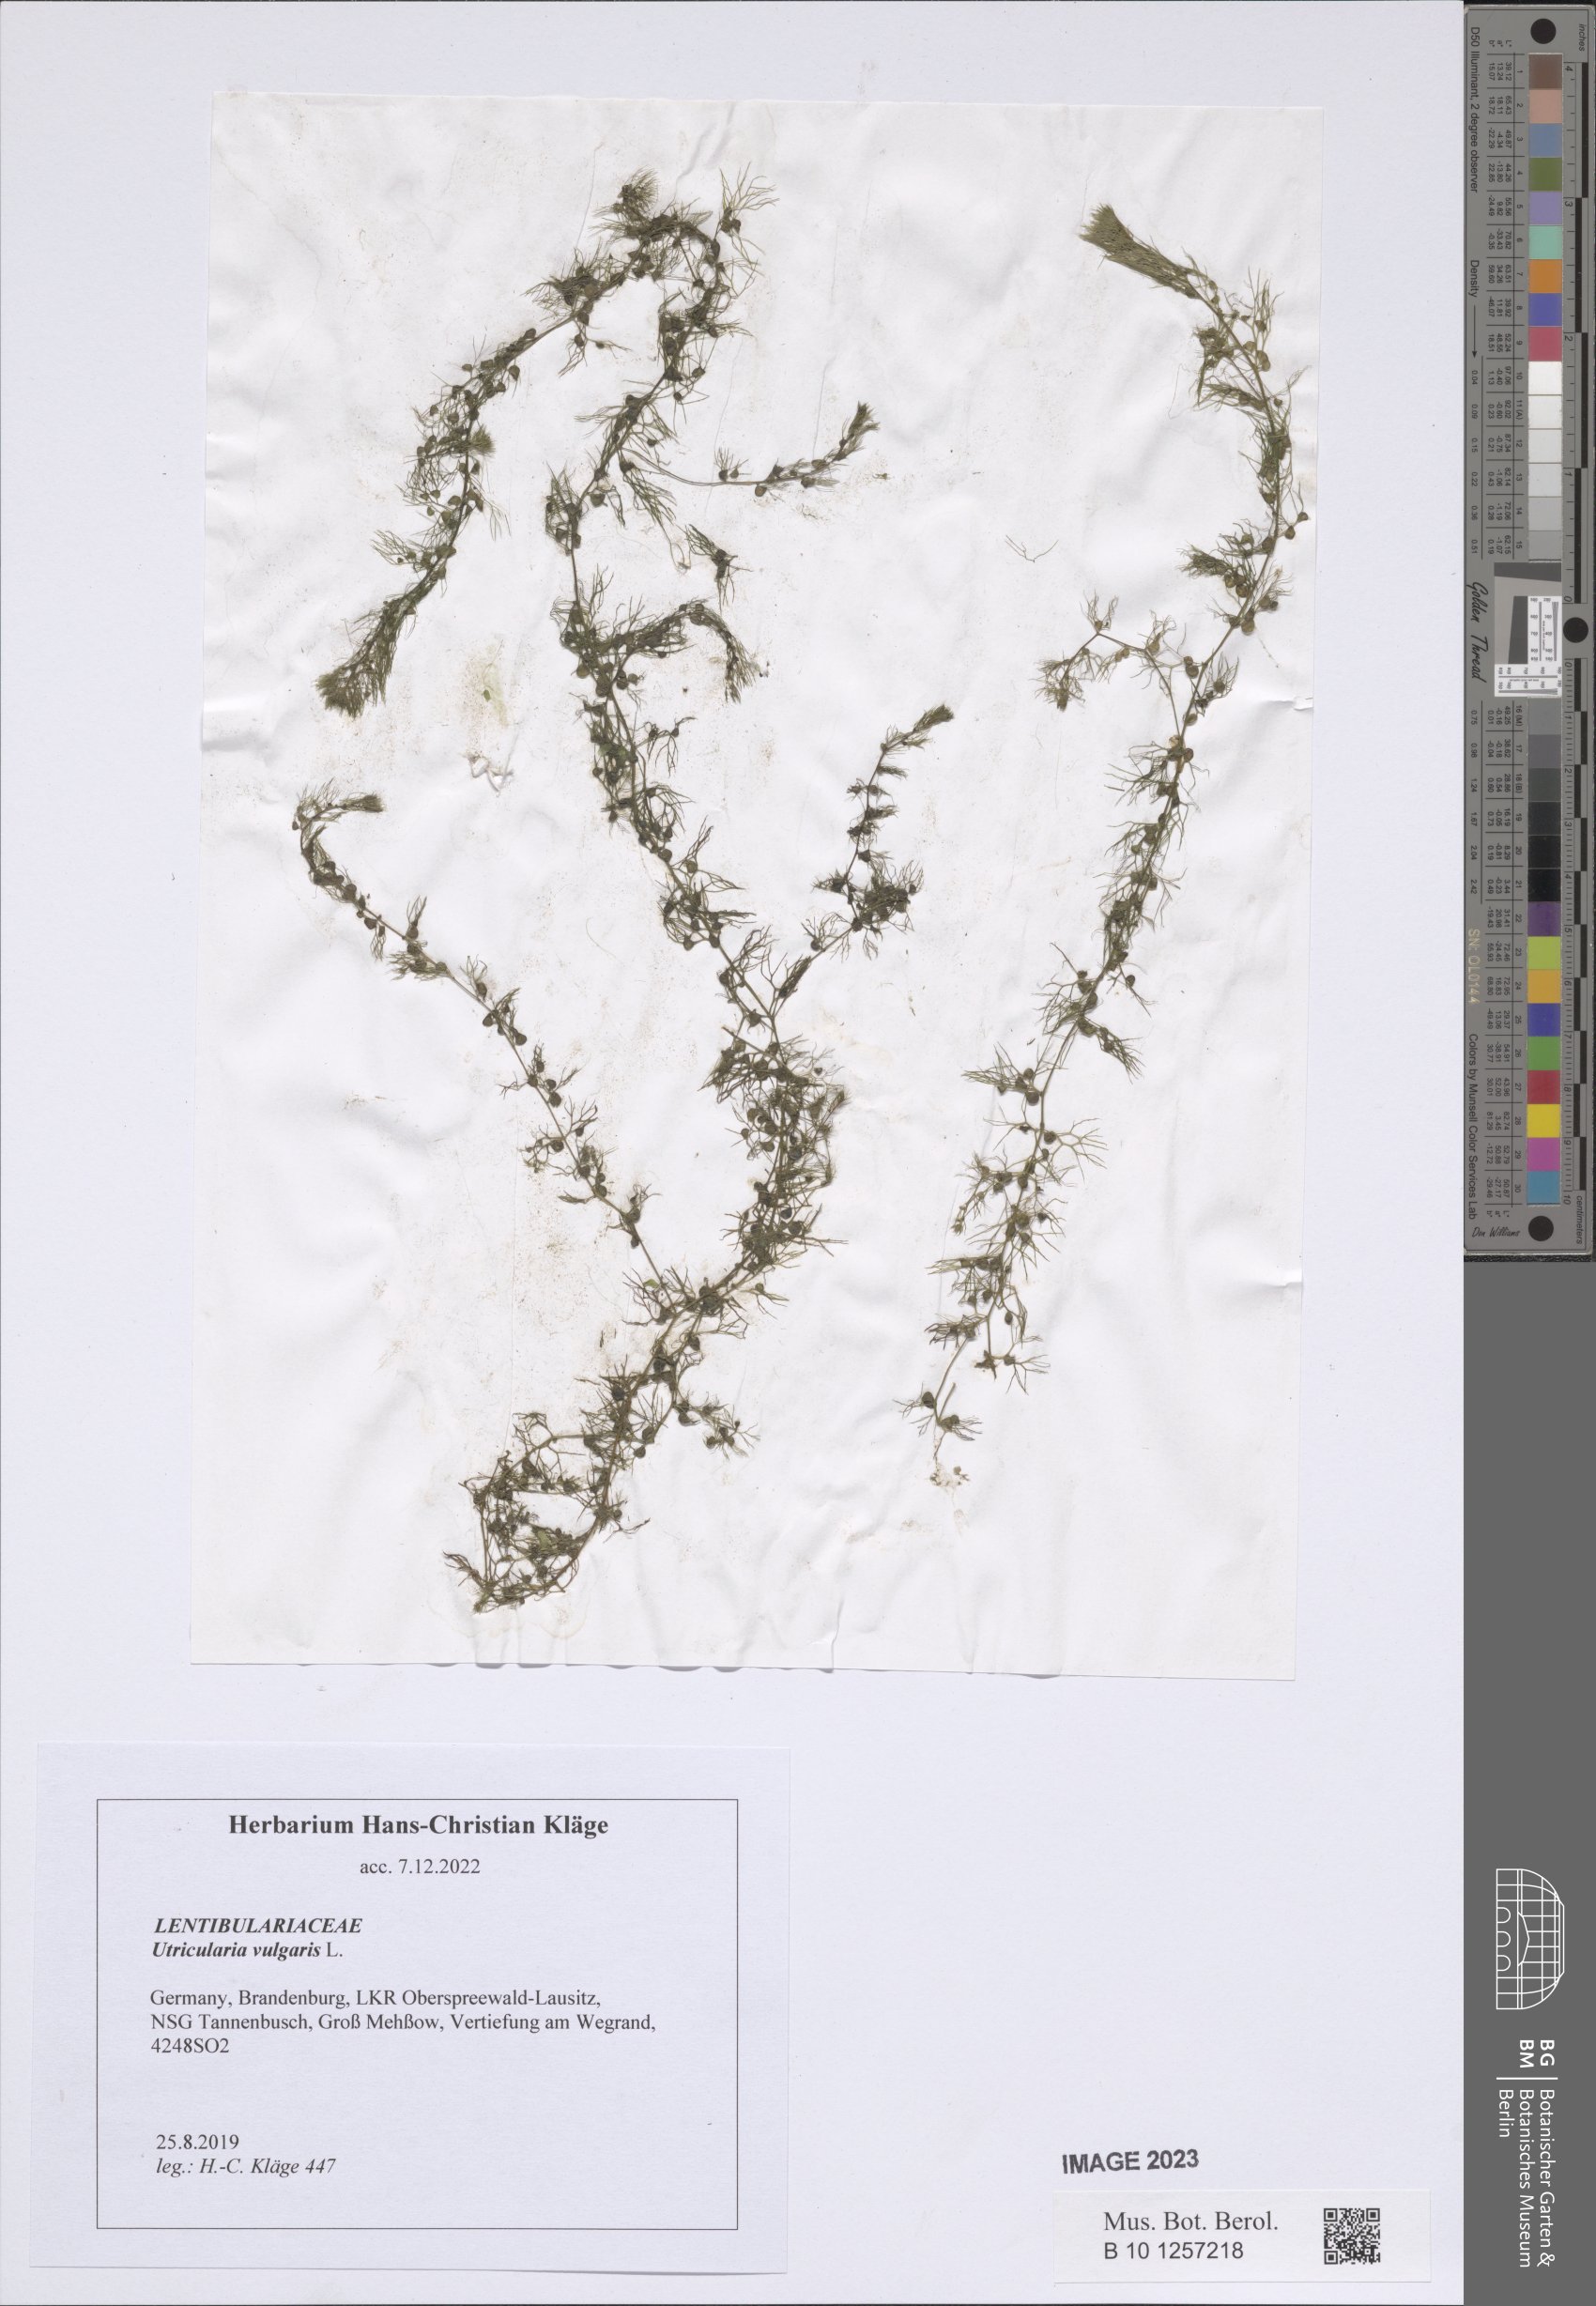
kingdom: Plantae
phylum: Tracheophyta
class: Magnoliopsida
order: Lamiales
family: Lentibulariaceae
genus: Utricularia
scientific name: Utricularia vulgaris
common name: Greater bladderwort
